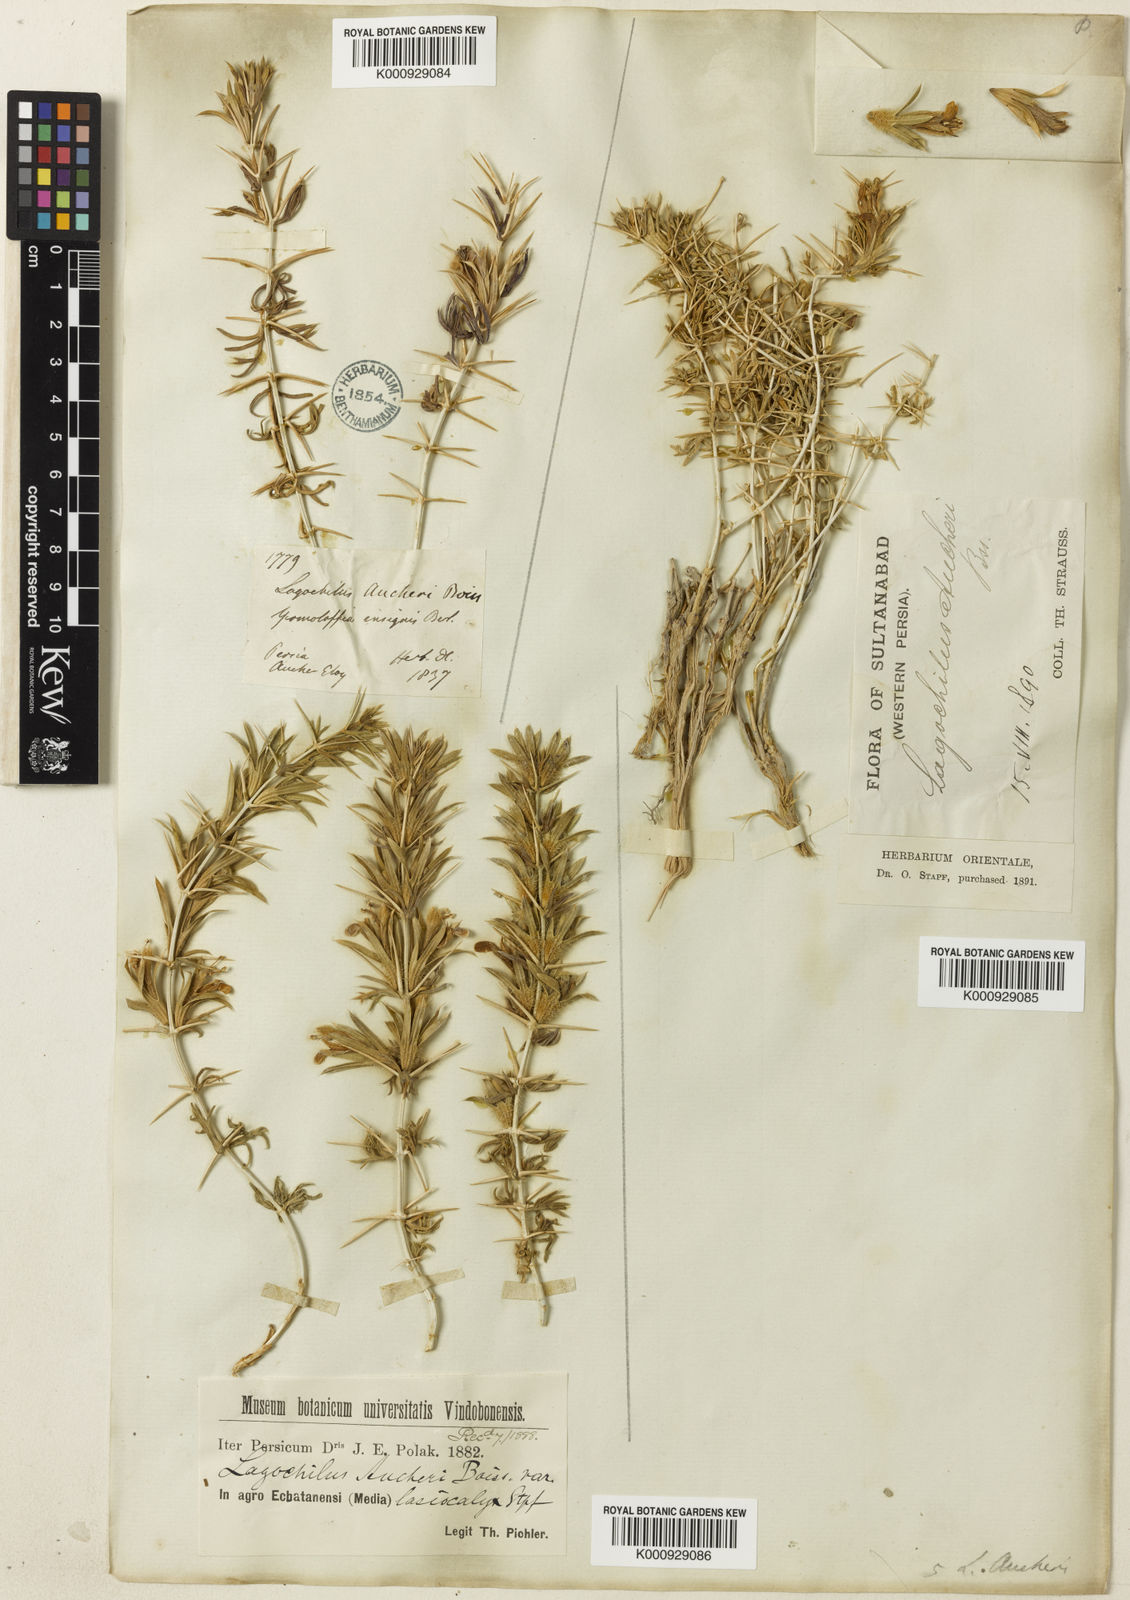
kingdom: Plantae
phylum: Tracheophyta
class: Magnoliopsida
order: Lamiales
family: Lamiaceae
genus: Lagochilus
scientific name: Lagochilus aucheri
